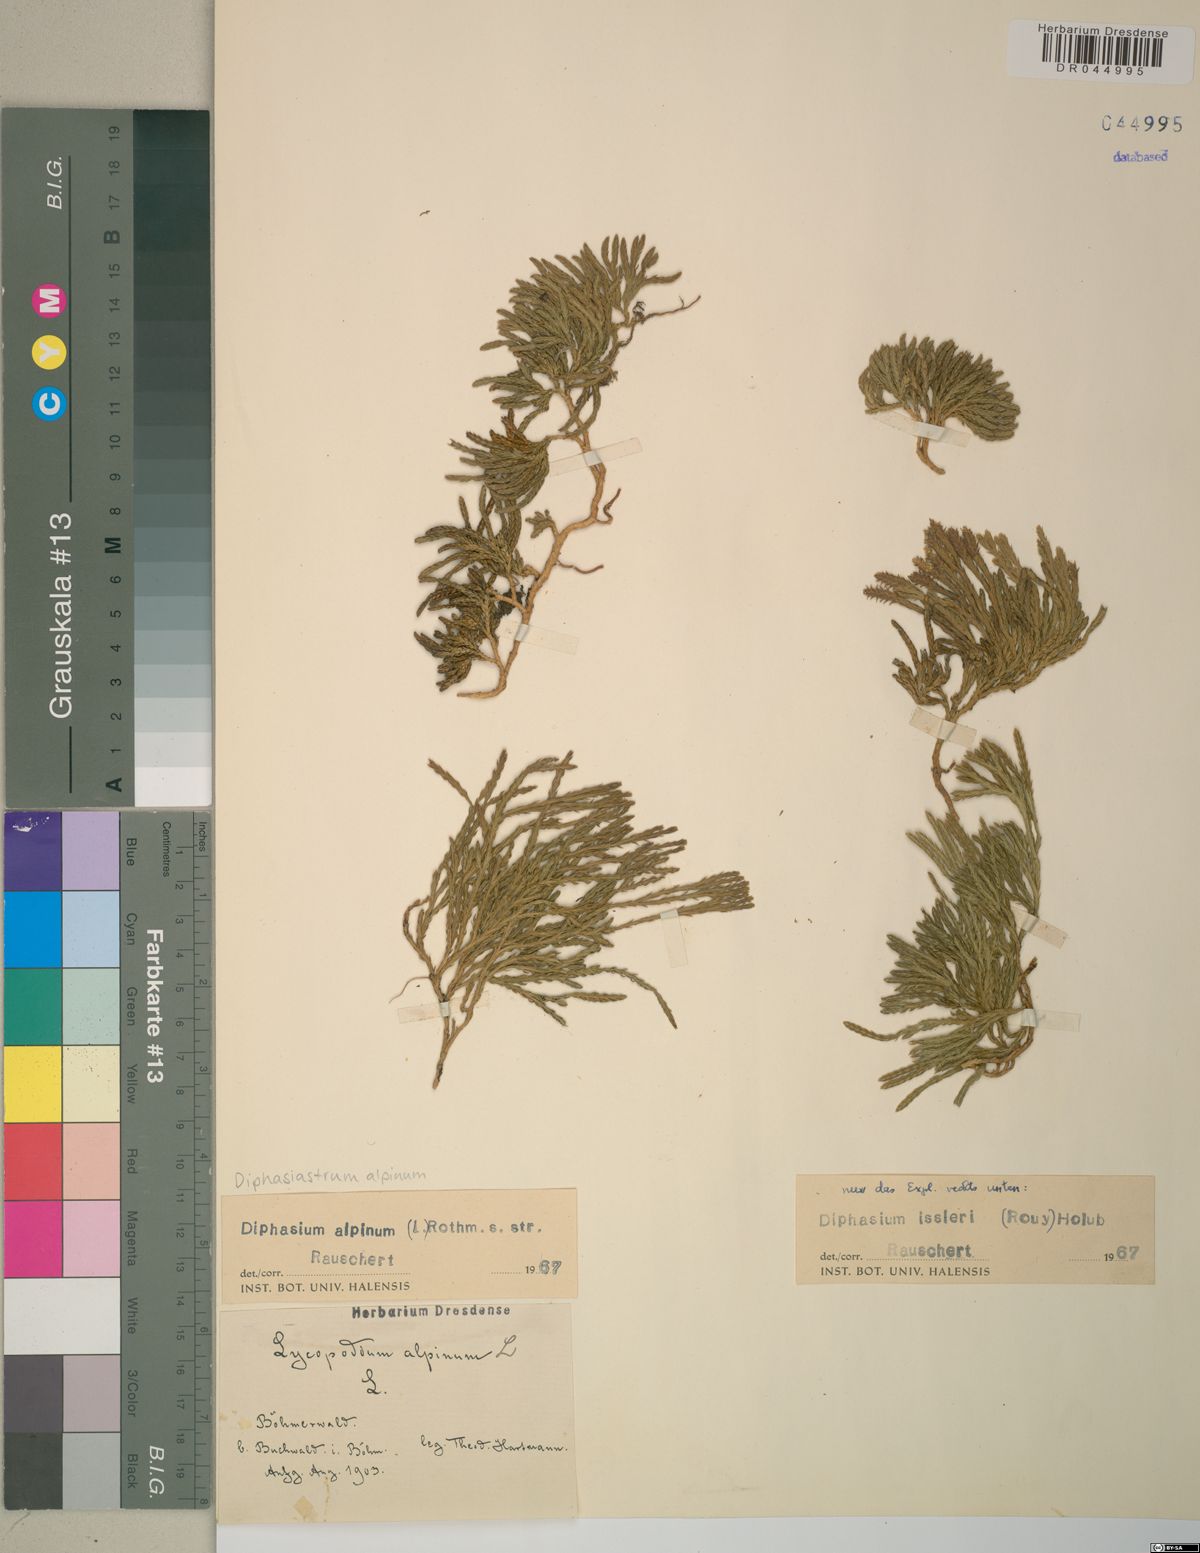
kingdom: Plantae
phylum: Tracheophyta
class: Lycopodiopsida
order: Lycopodiales
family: Lycopodiaceae
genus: Diphasiastrum
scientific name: Diphasiastrum alpinum
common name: Alpine clubmoss
